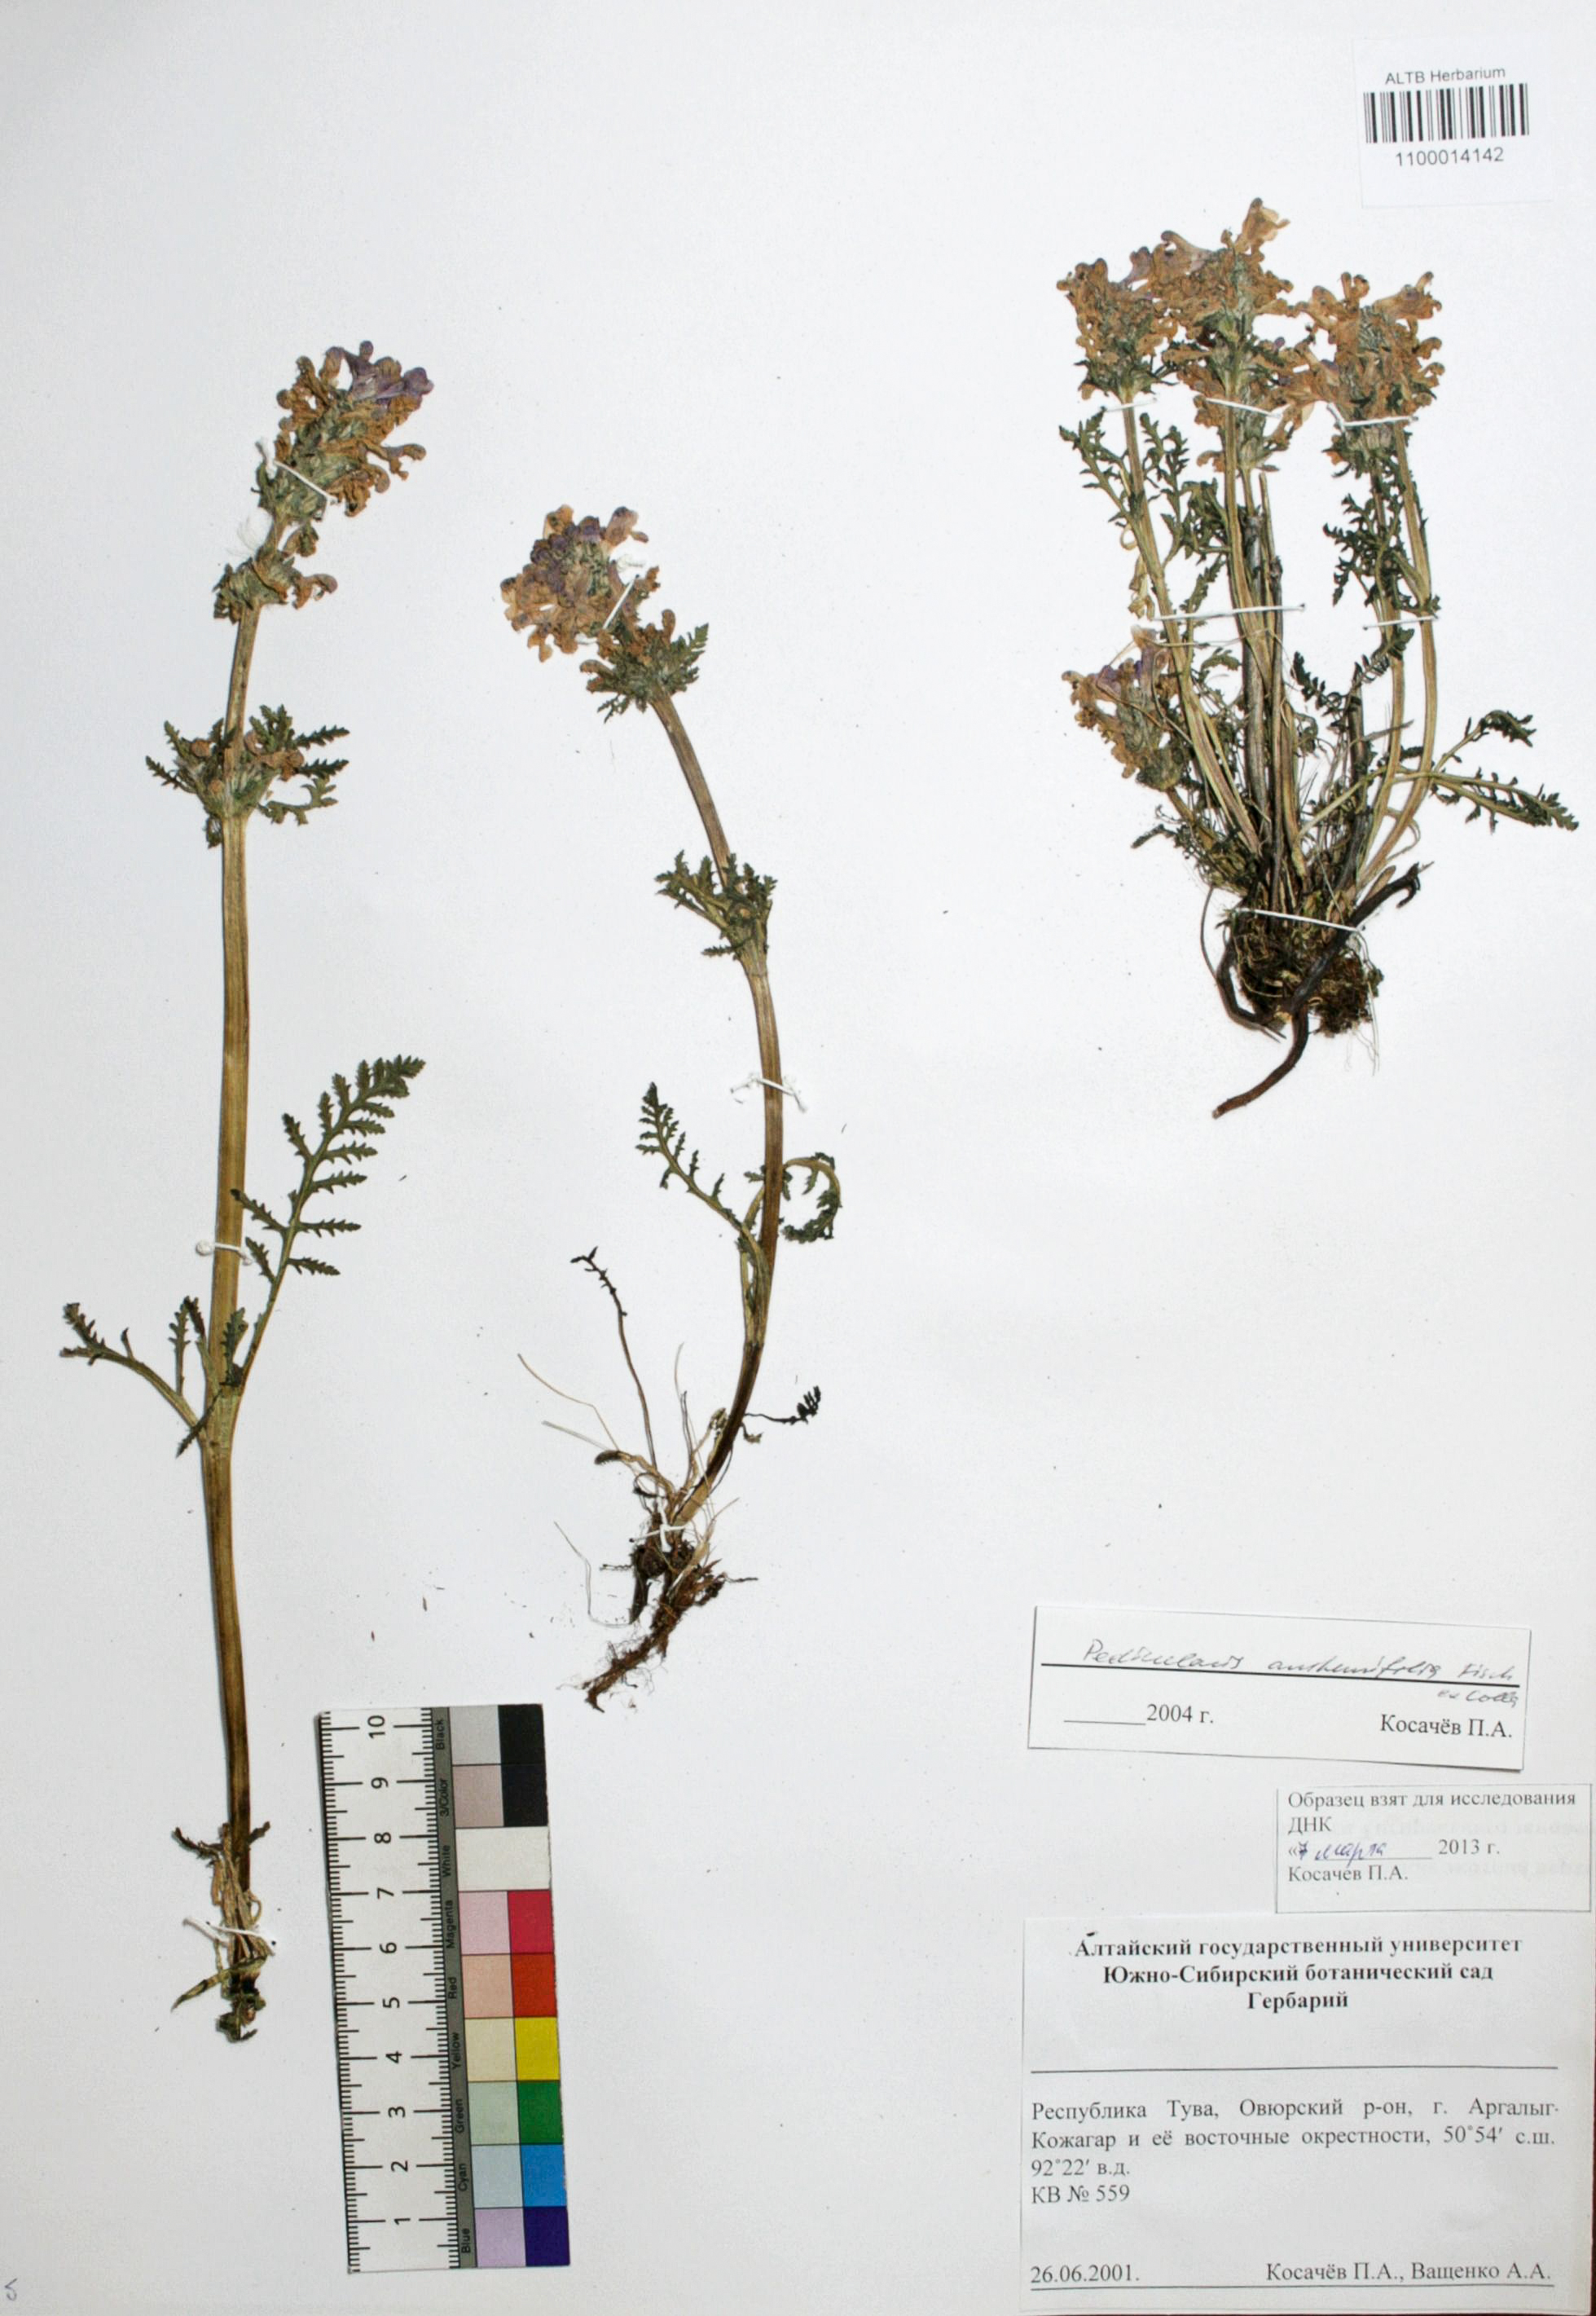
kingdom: Plantae
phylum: Tracheophyta
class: Magnoliopsida
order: Lamiales
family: Orobanchaceae
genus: Pedicularis
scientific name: Pedicularis anthemifolia
